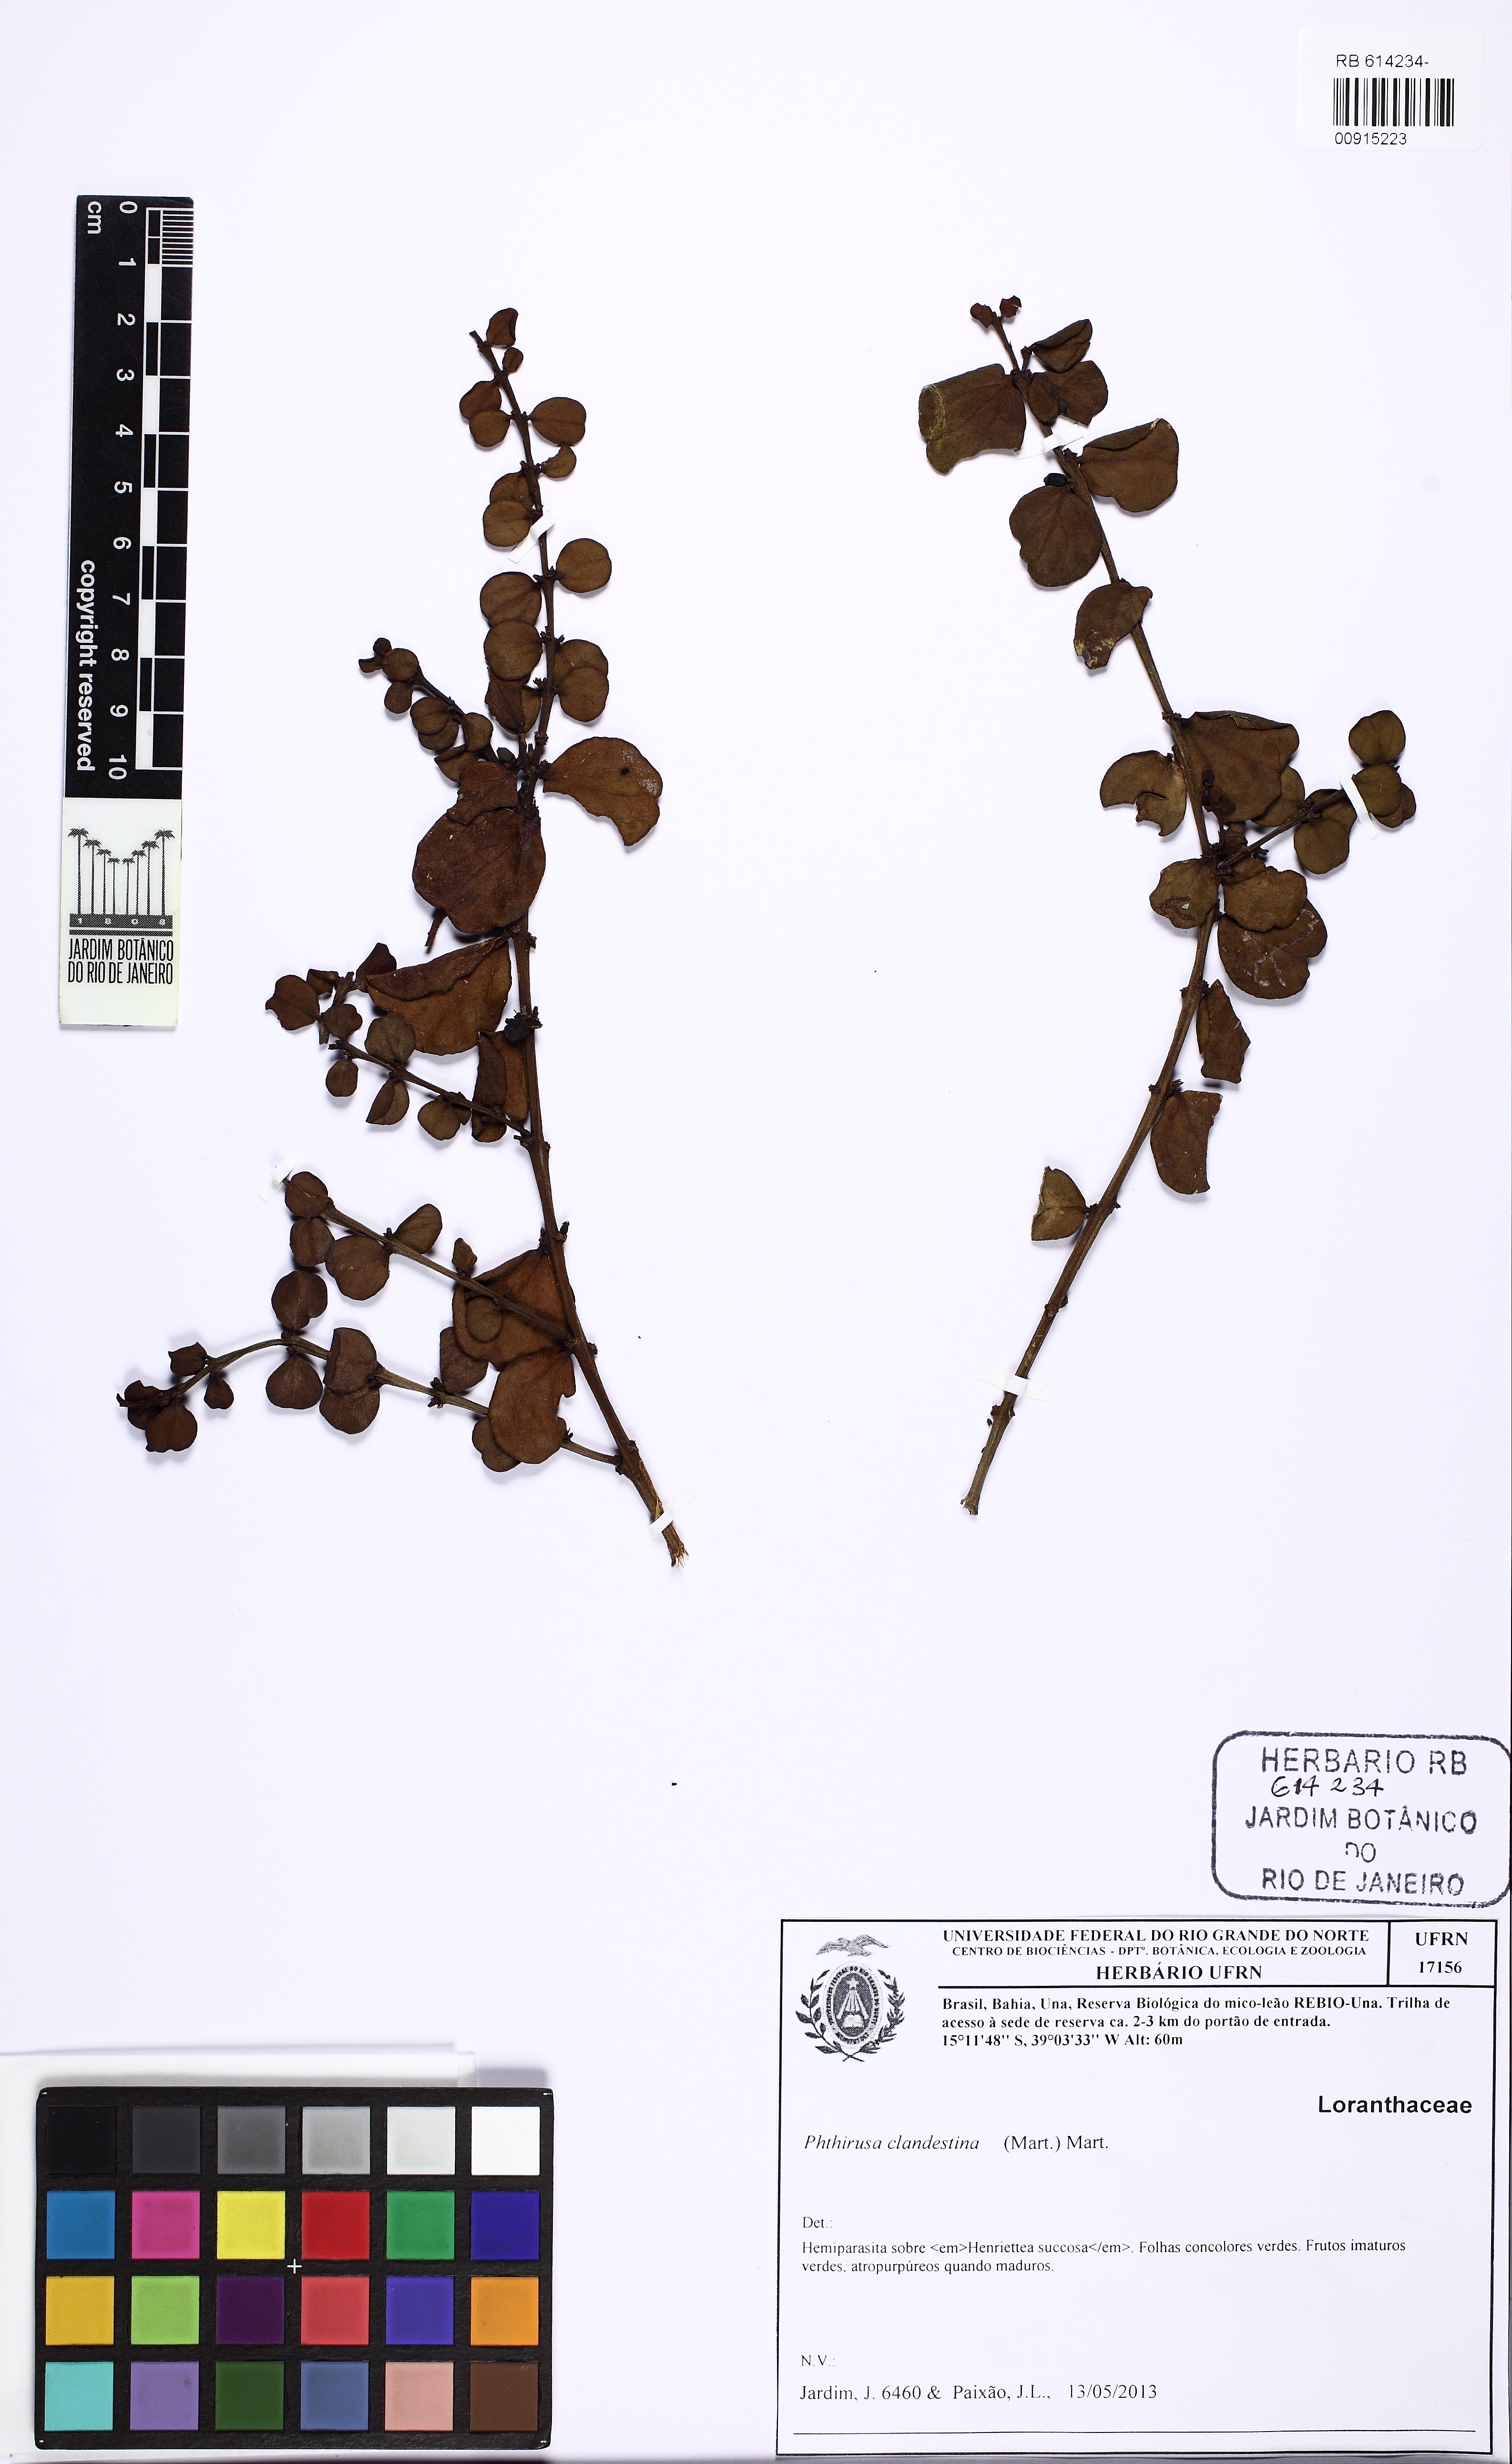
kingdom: Plantae
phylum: Tracheophyta
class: Magnoliopsida
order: Santalales
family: Loranthaceae
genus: Phthirusa
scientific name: Phthirusa clandestina
